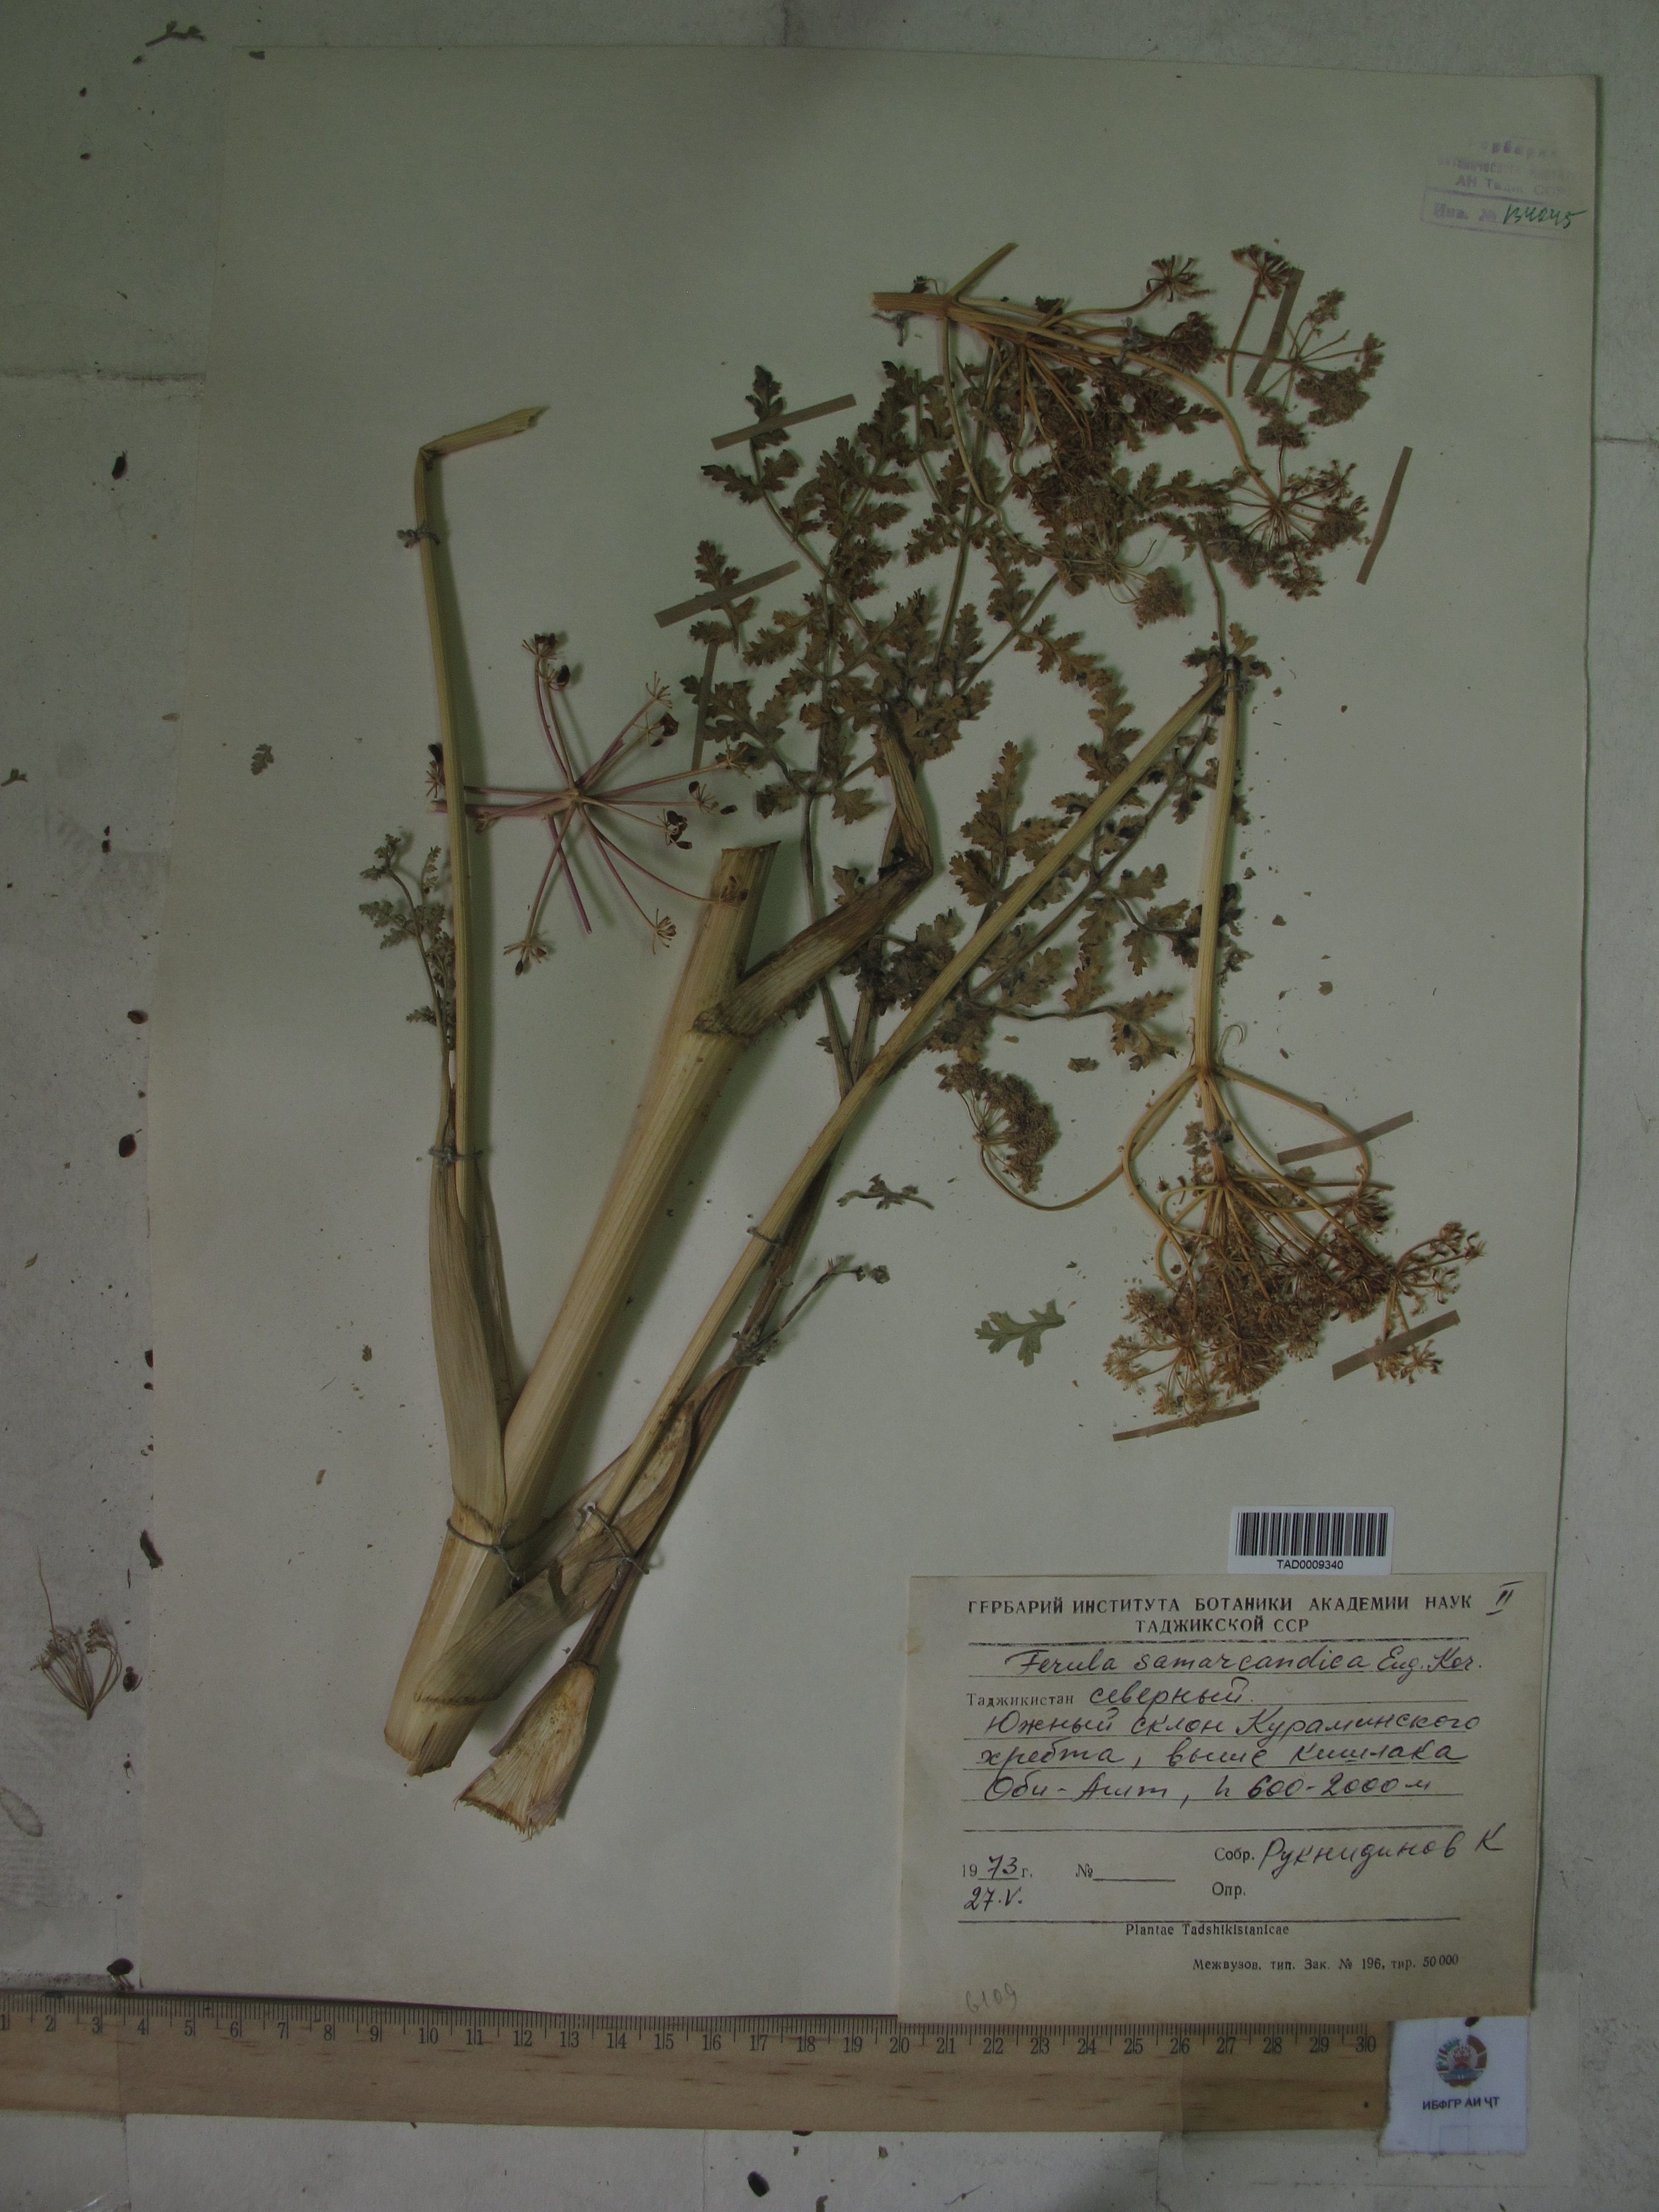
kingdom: Plantae
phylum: Tracheophyta
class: Magnoliopsida
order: Apiales
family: Apiaceae
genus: Ferula
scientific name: Ferula samarkandica
